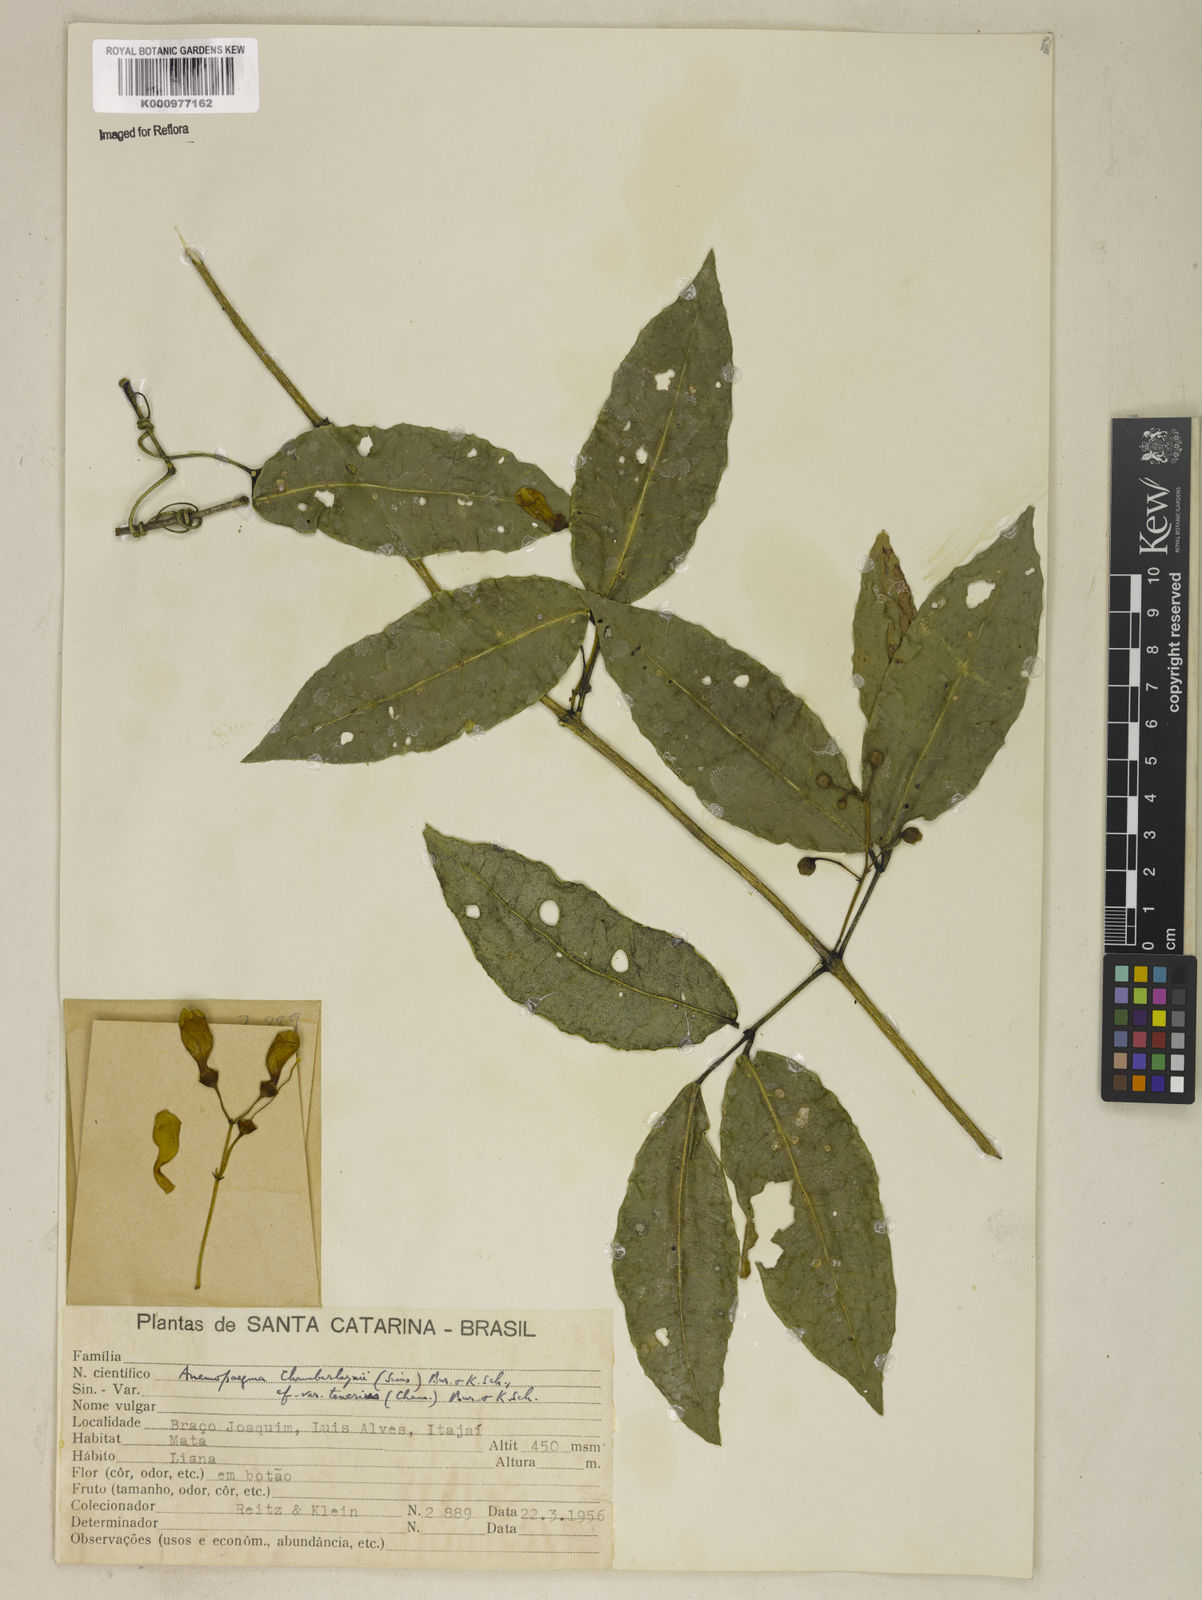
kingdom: Plantae
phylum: Tracheophyta
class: Magnoliopsida
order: Lamiales
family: Bignoniaceae
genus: Anemopaegma
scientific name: Anemopaegma chamberlaynii
